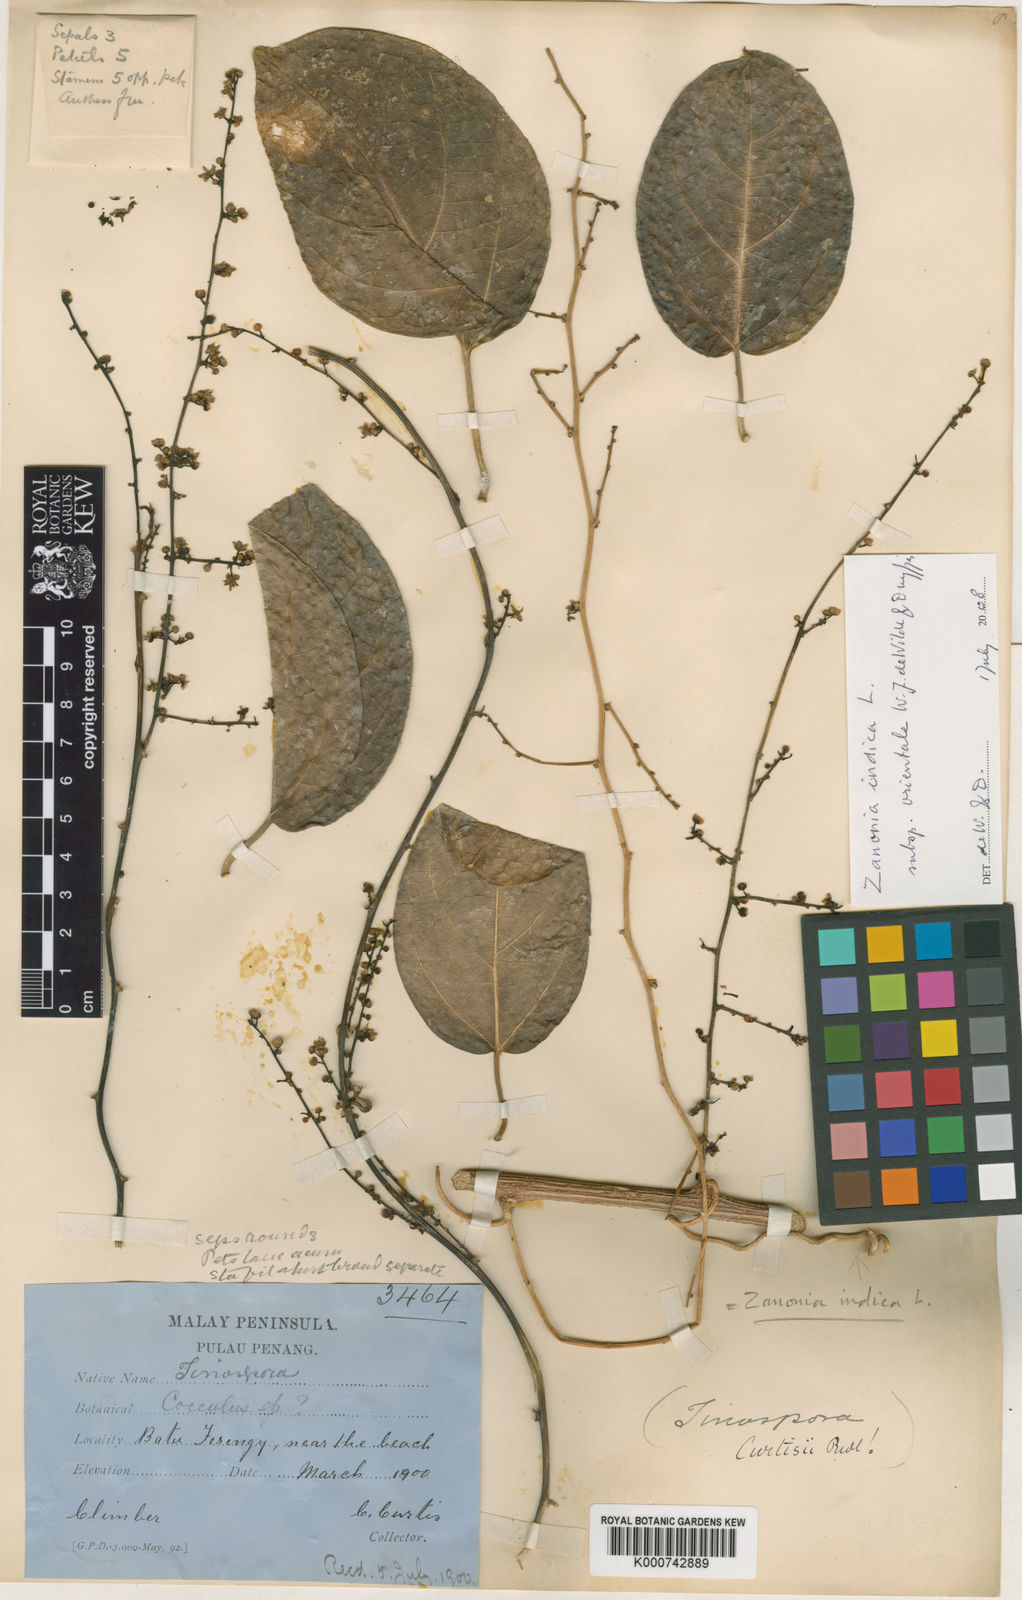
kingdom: Plantae
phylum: Tracheophyta
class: Magnoliopsida
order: Cucurbitales
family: Cucurbitaceae
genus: Zanonia
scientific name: Zanonia indica
